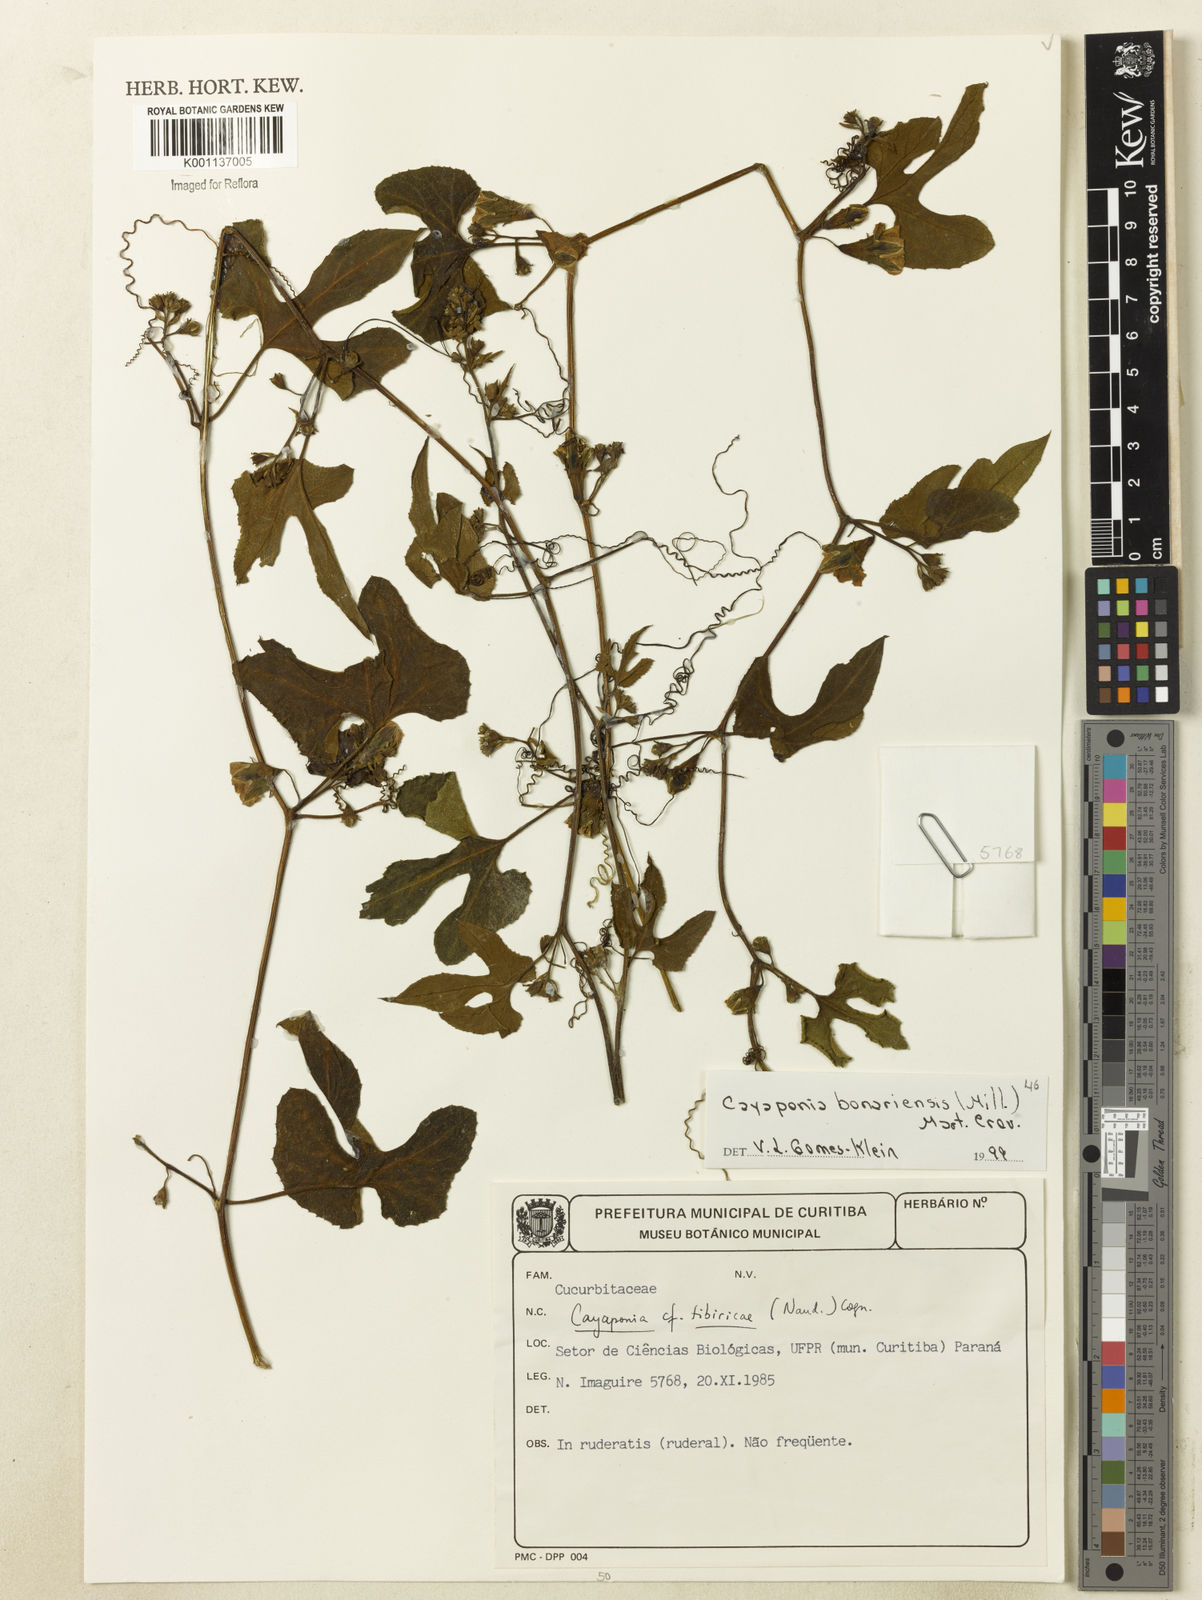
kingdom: Plantae
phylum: Tracheophyta
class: Magnoliopsida
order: Cucurbitales
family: Cucurbitaceae
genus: Cayaponia
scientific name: Cayaponia bonariensis
